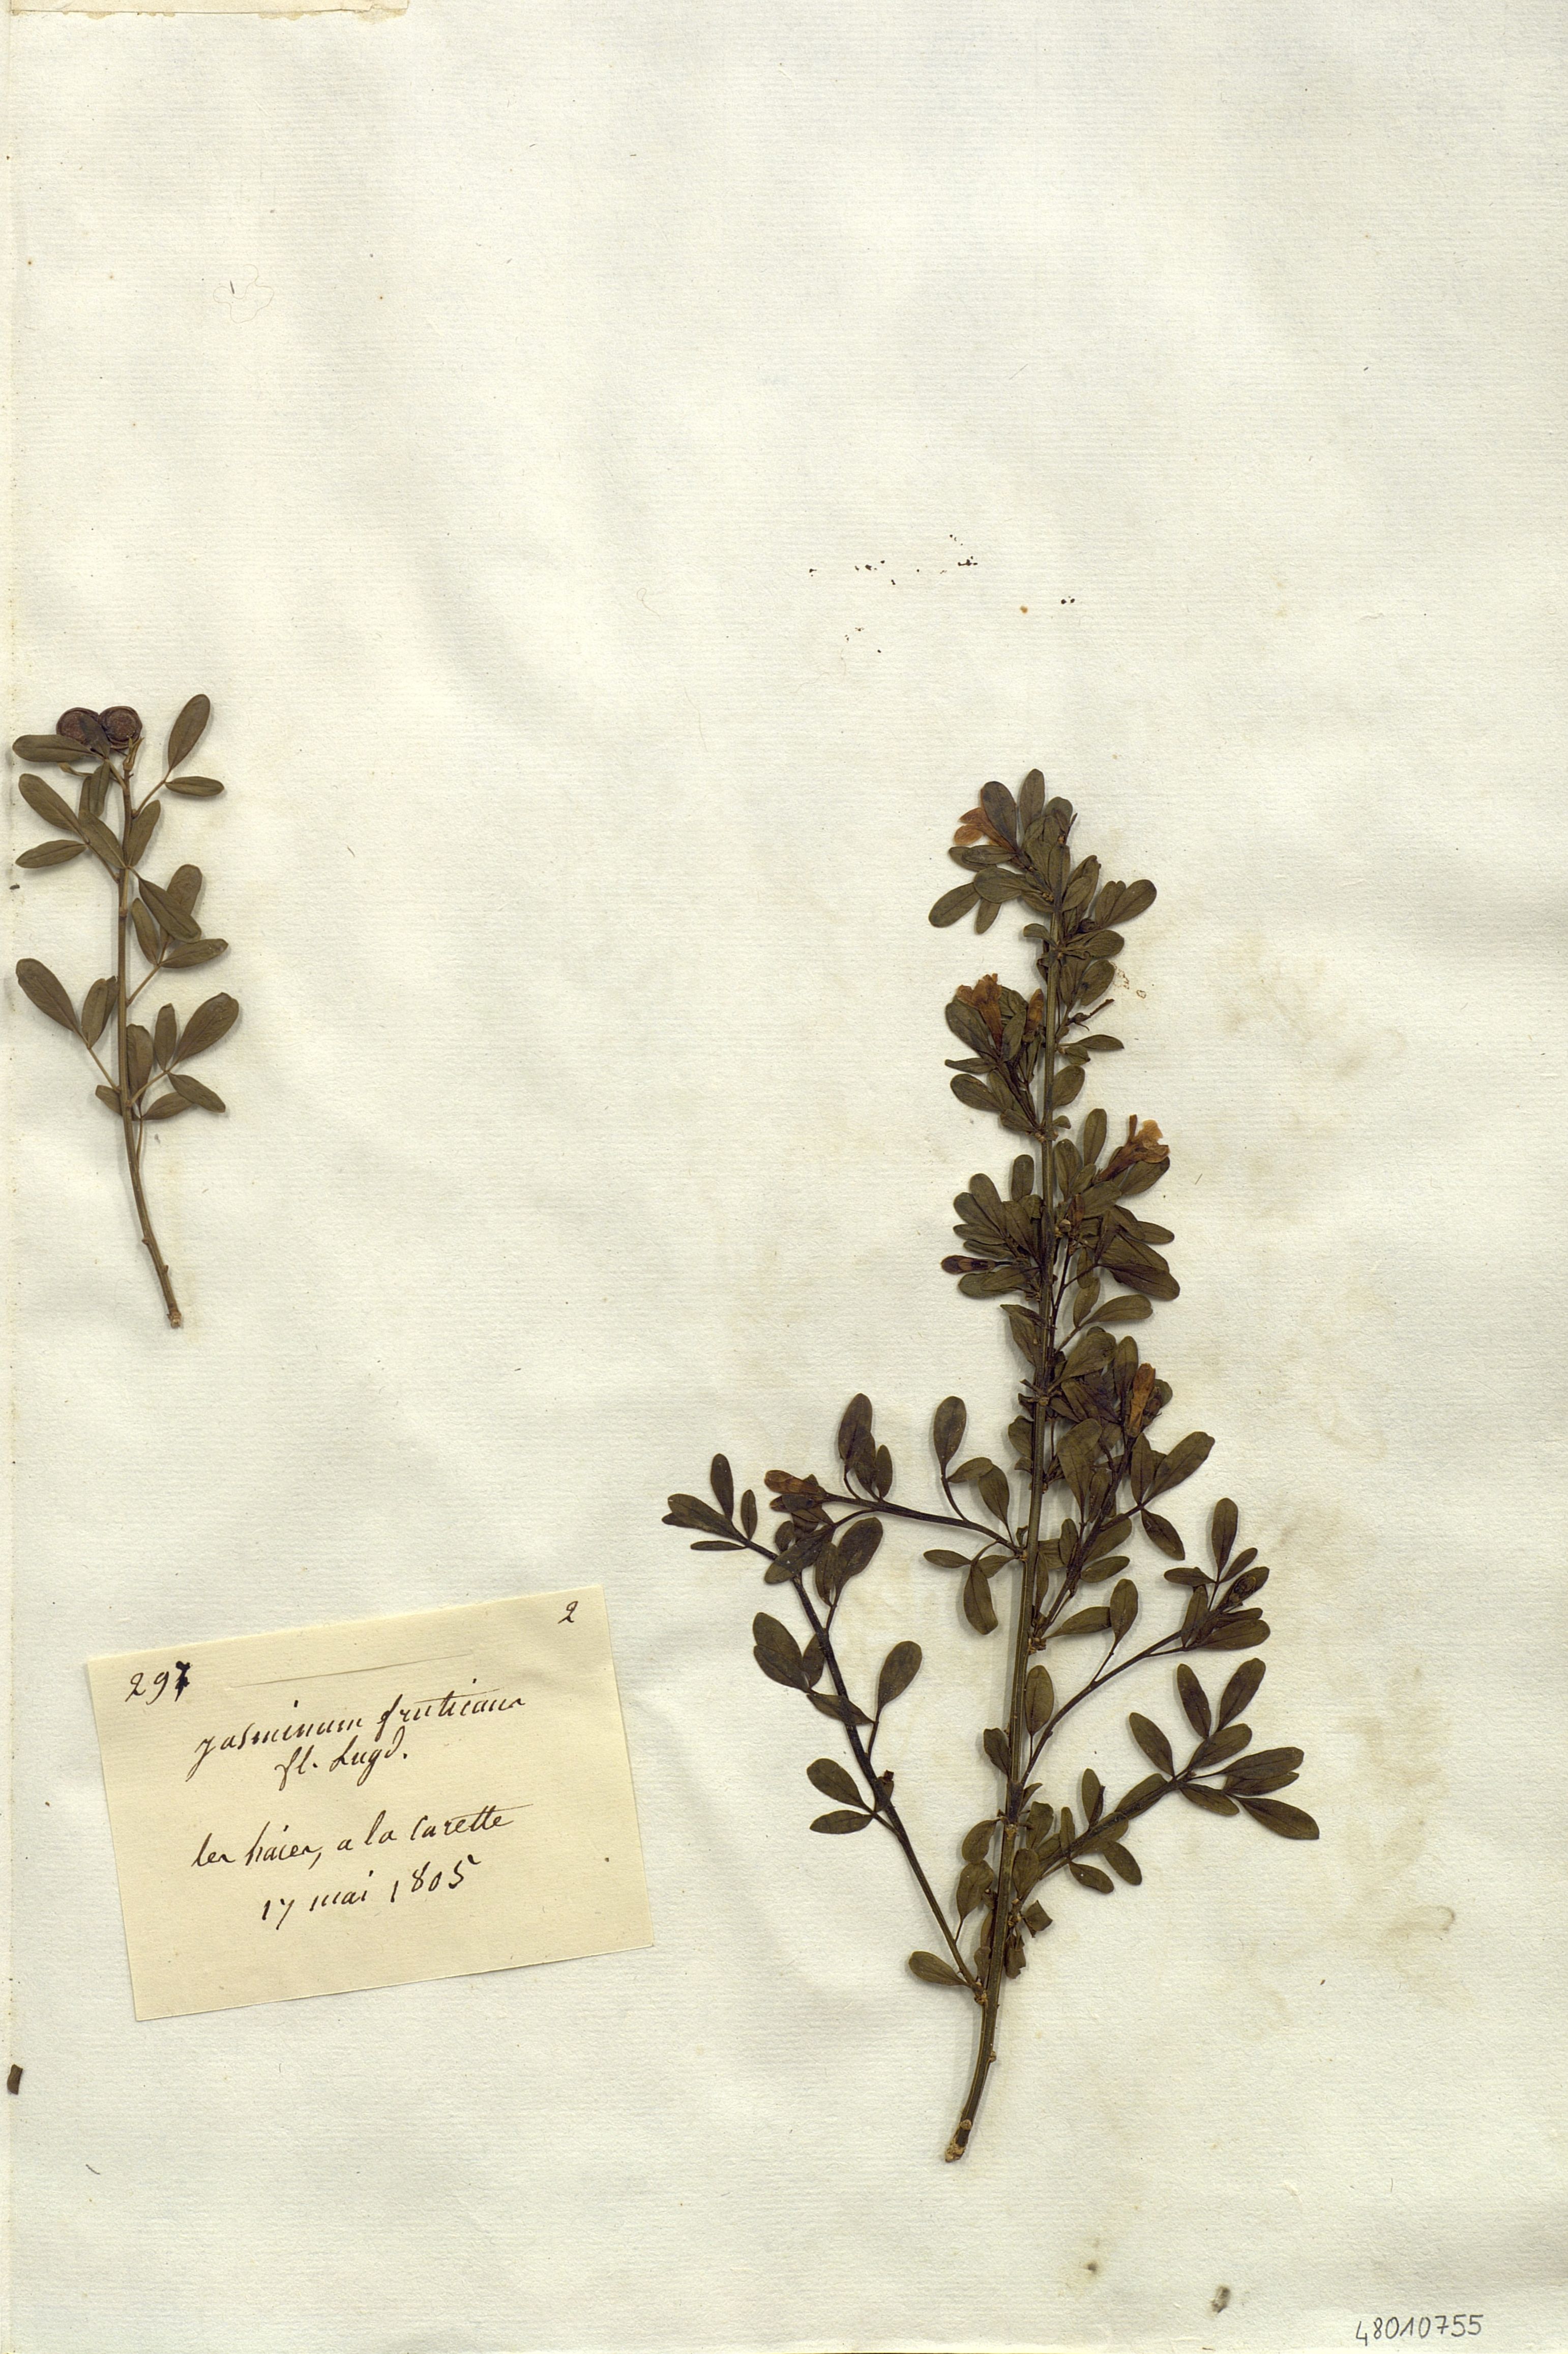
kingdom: Plantae
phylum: Tracheophyta
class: Magnoliopsida
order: Lamiales
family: Oleaceae
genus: Chrysojasminum
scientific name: Chrysojasminum fruticans
